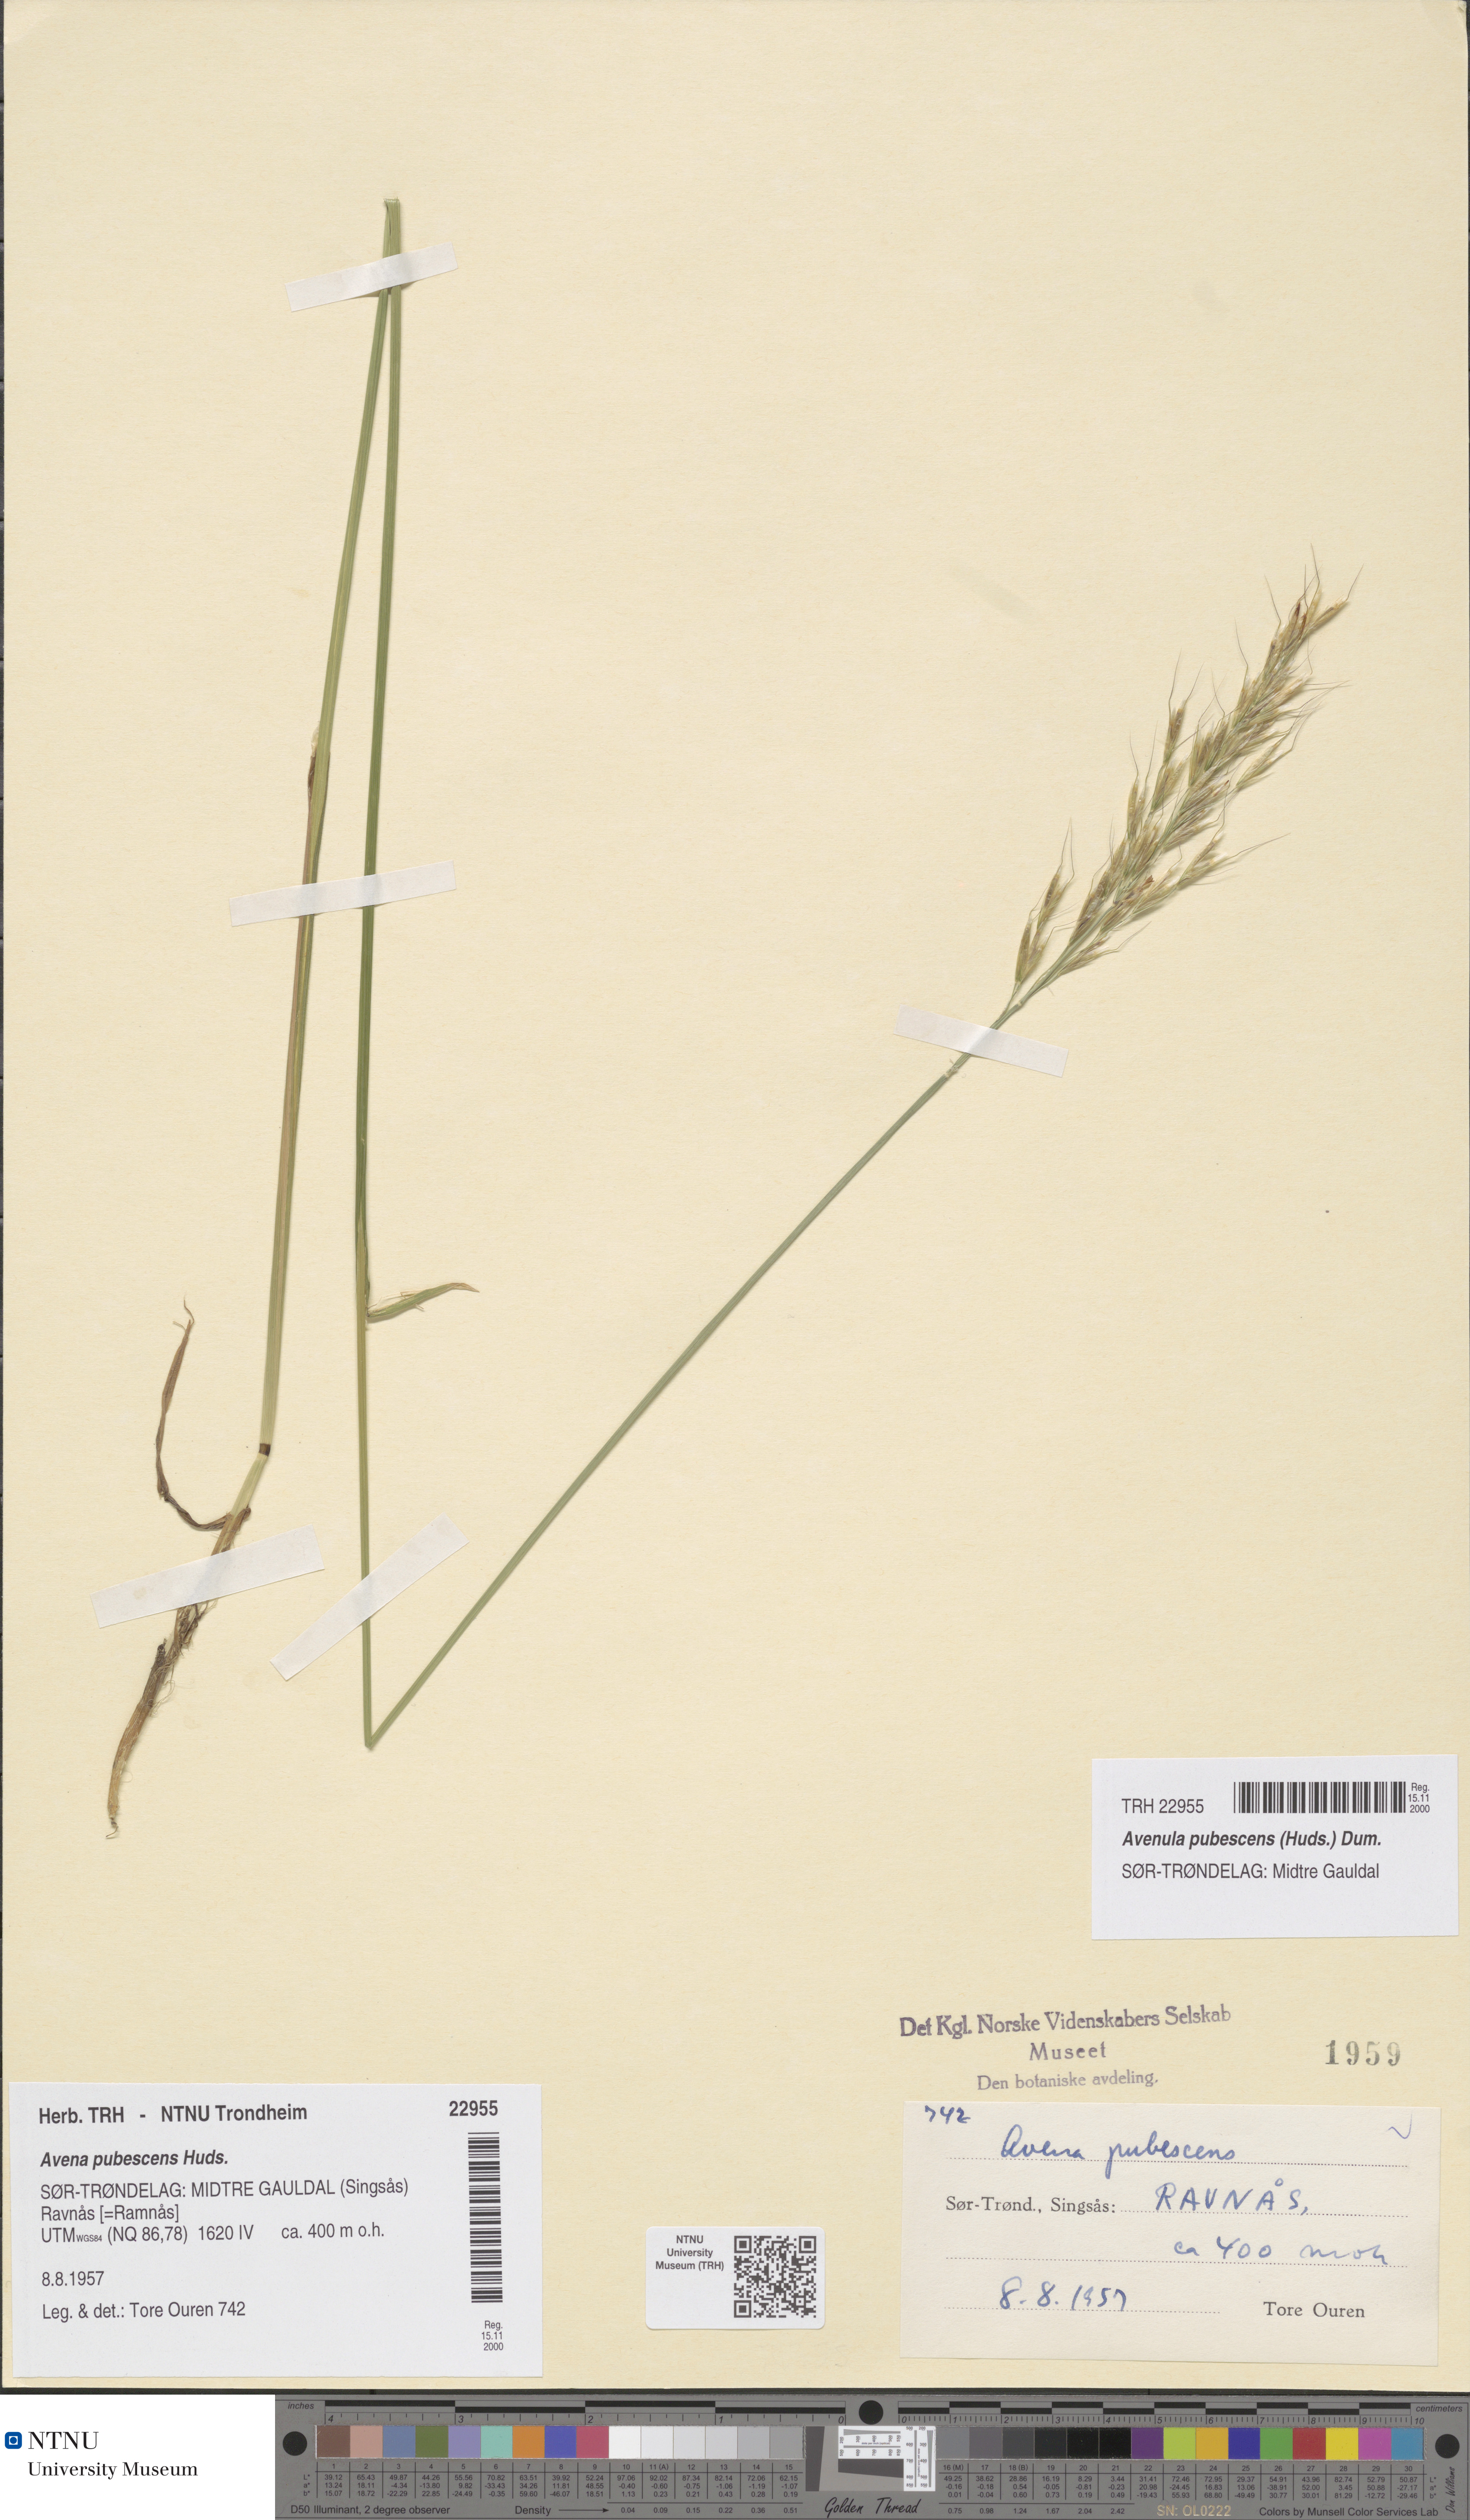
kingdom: Plantae
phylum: Tracheophyta
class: Liliopsida
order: Poales
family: Poaceae
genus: Avenula
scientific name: Avenula pubescens
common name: Downy alpine oatgrass
